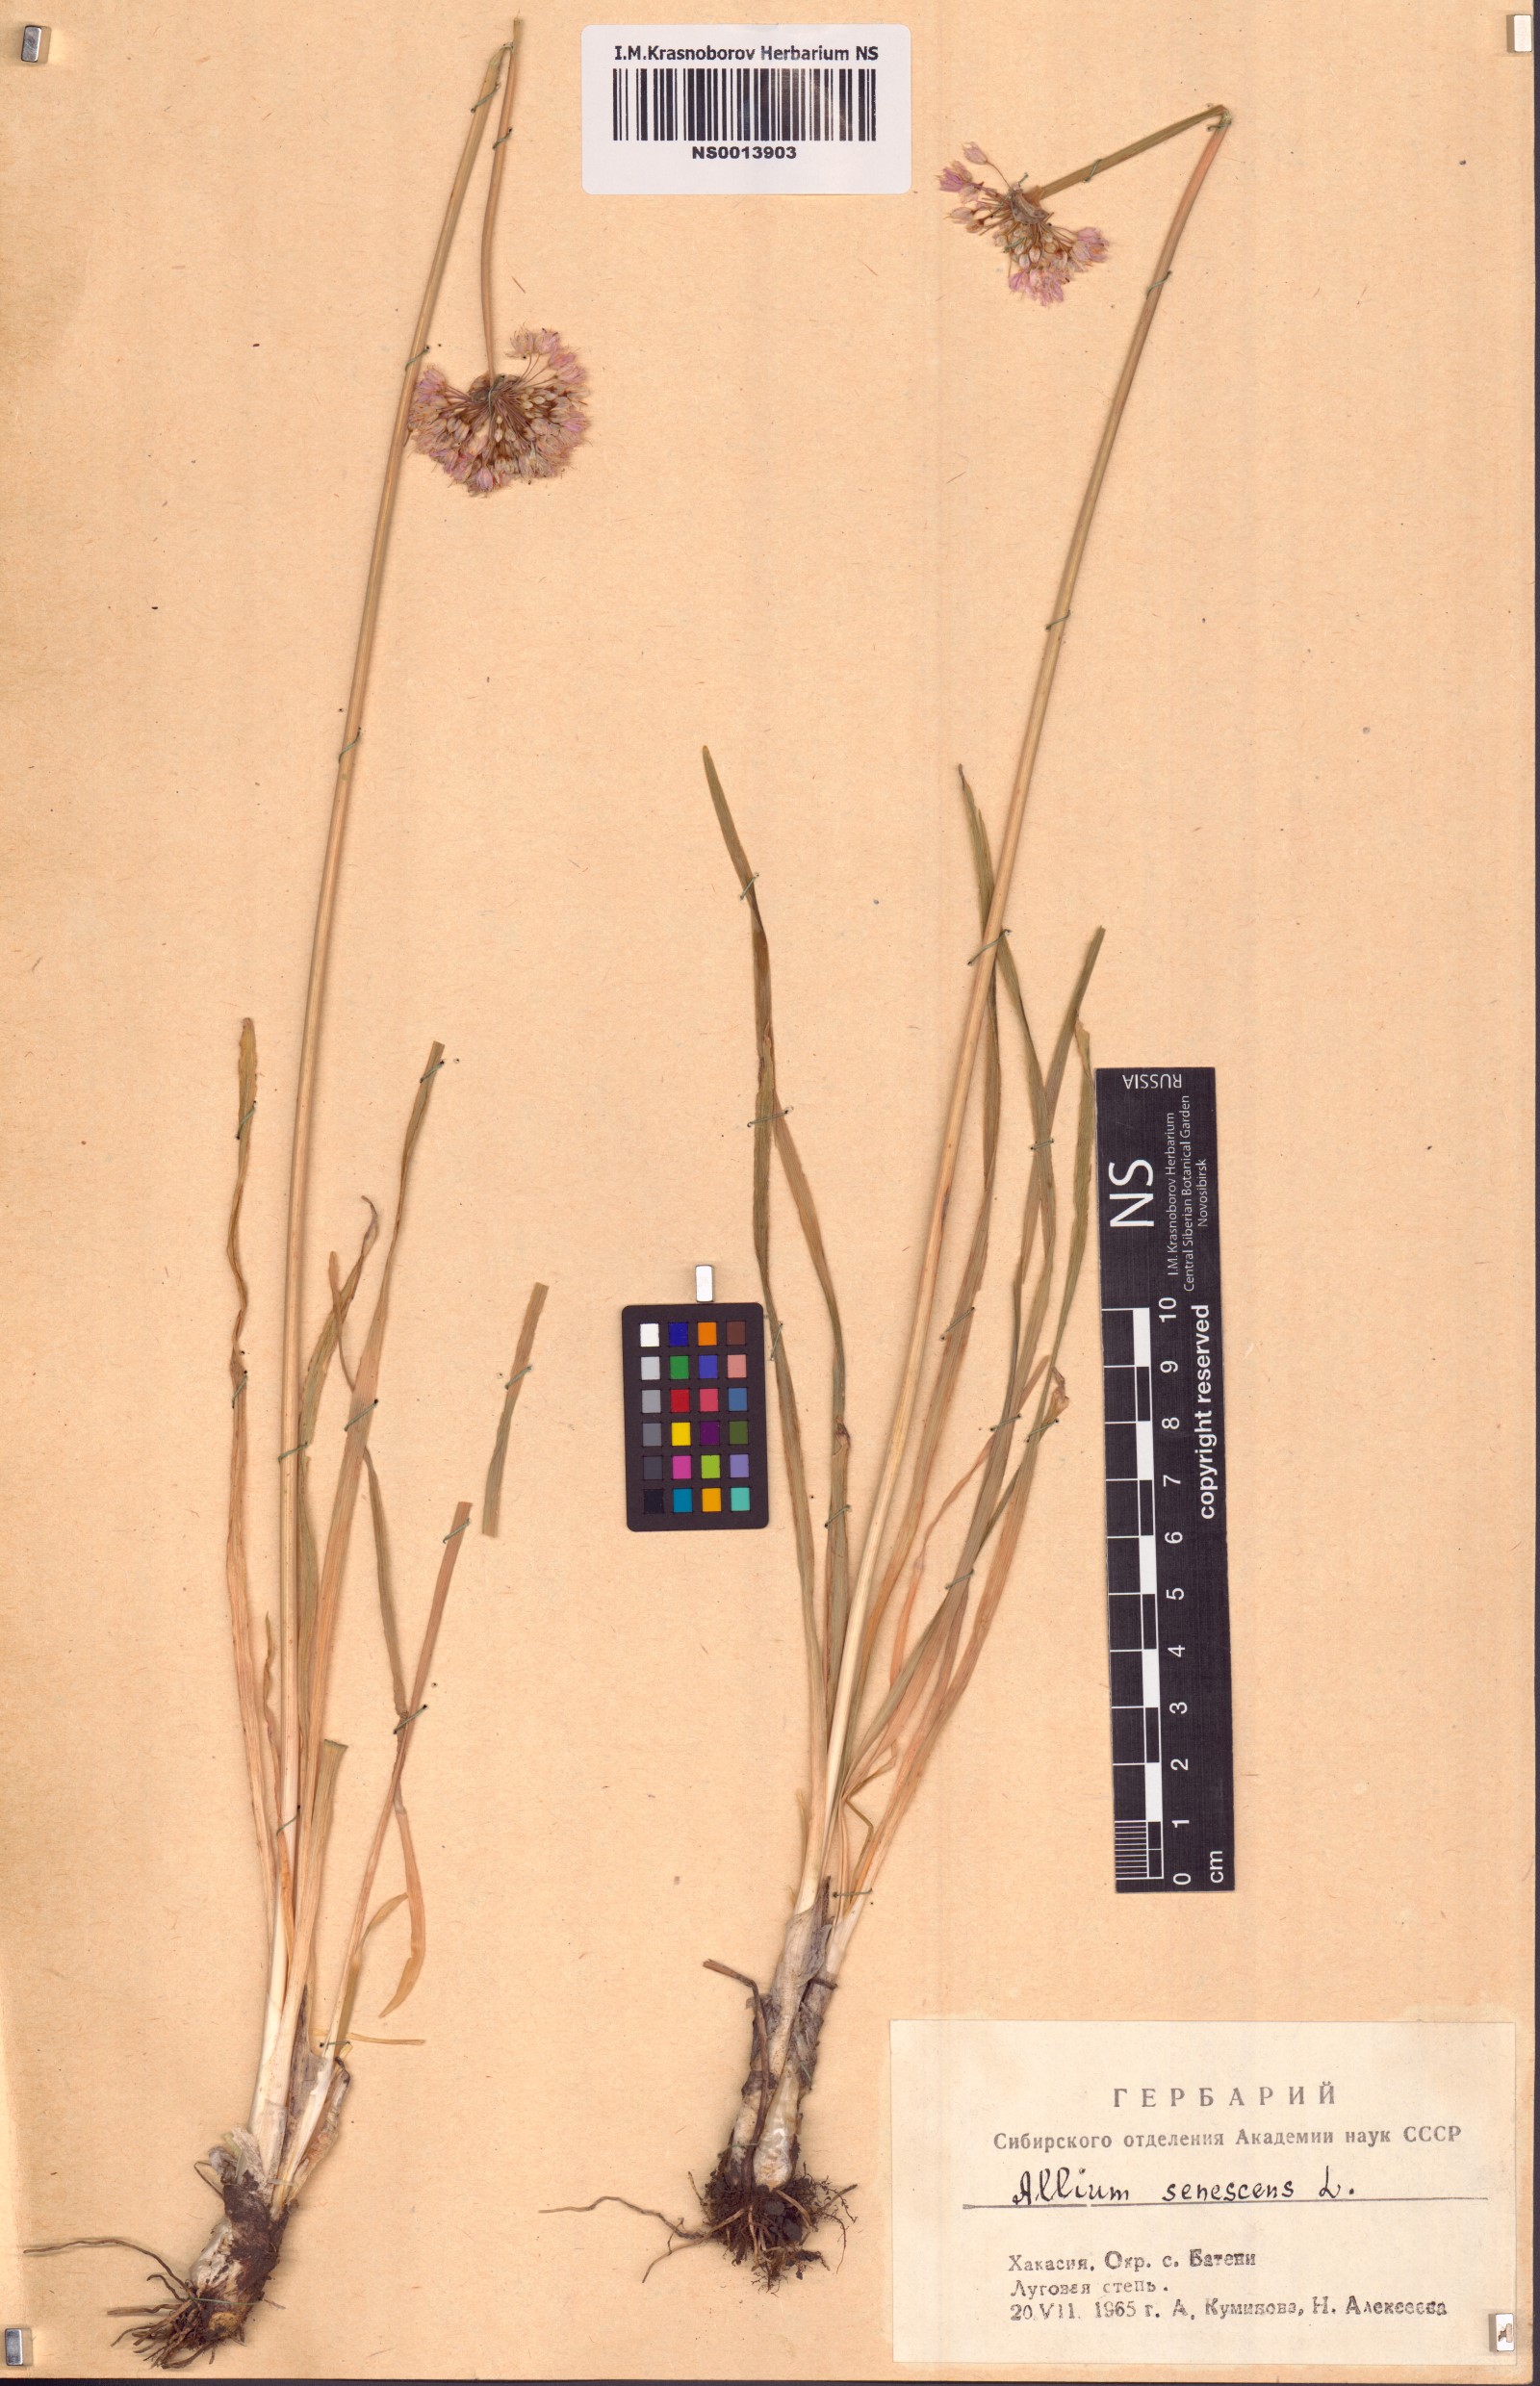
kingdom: Plantae
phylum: Tracheophyta
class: Liliopsida
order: Asparagales
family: Amaryllidaceae
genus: Allium
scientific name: Allium senescens
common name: German garlic
